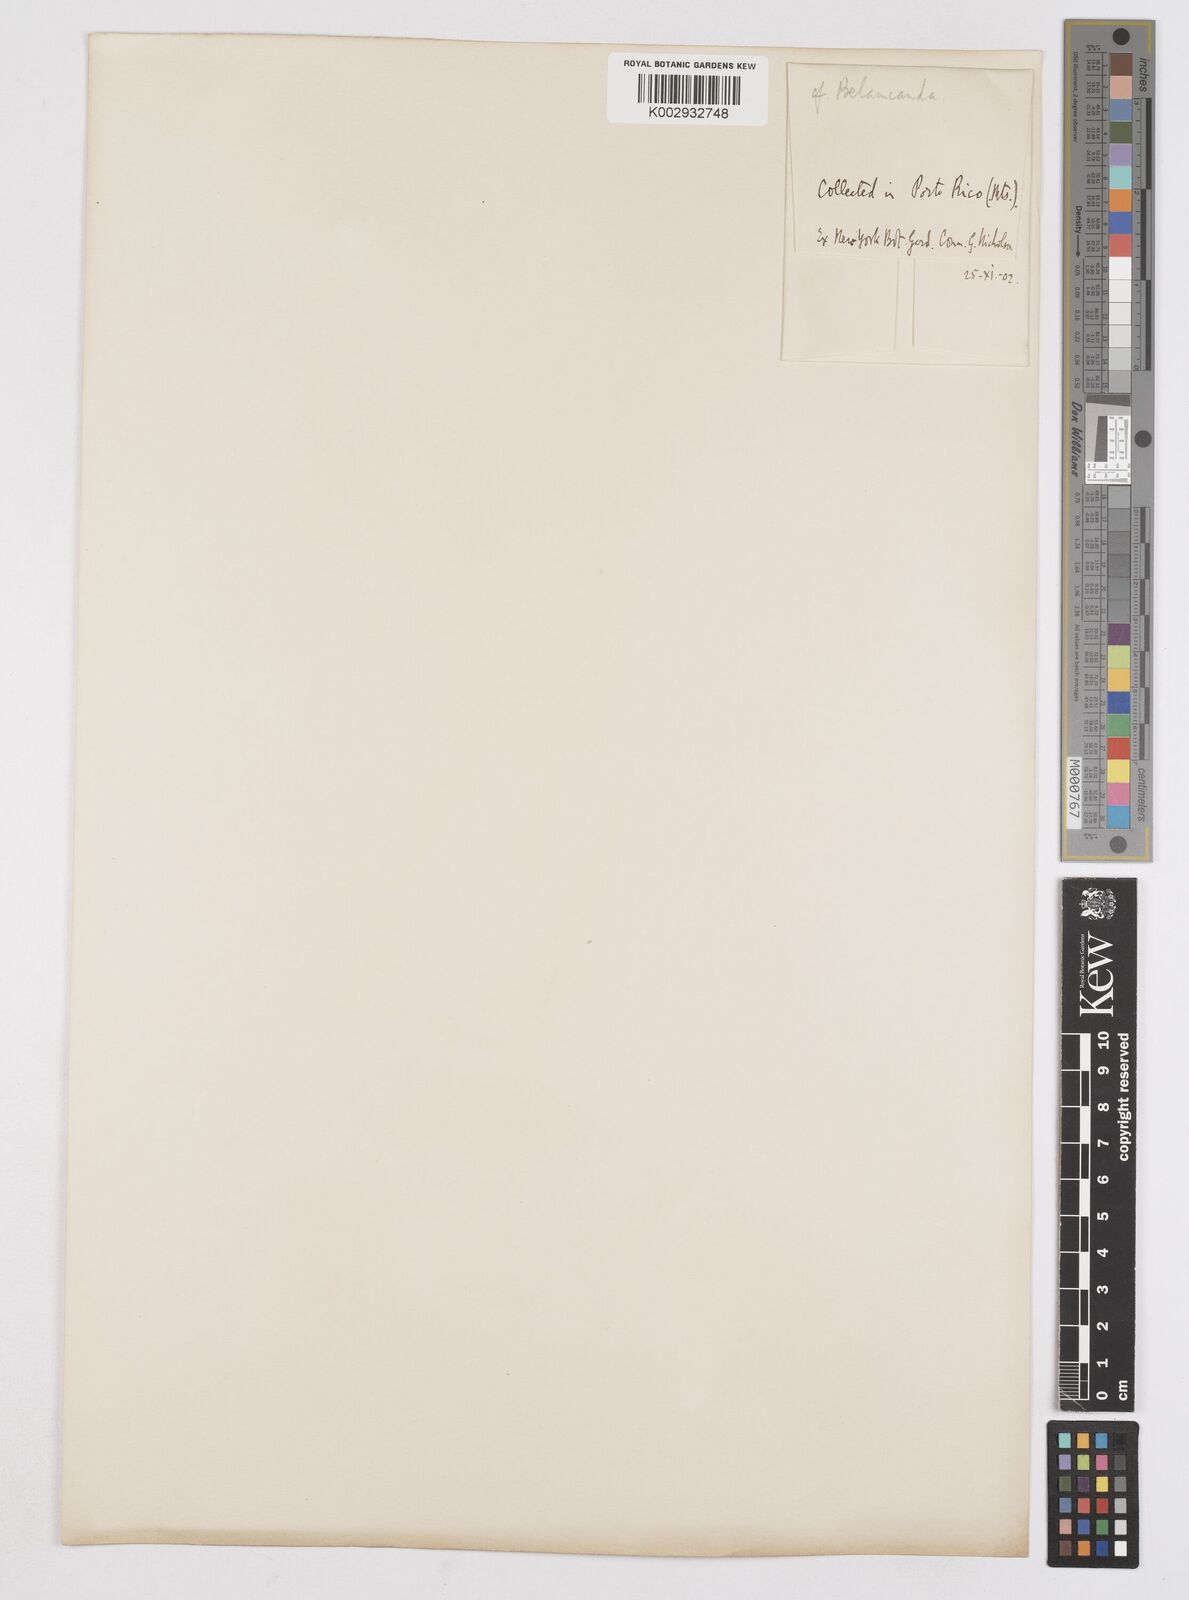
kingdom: Plantae
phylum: Tracheophyta
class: Liliopsida
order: Asparagales
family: Iridaceae
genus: Iris
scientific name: Iris
